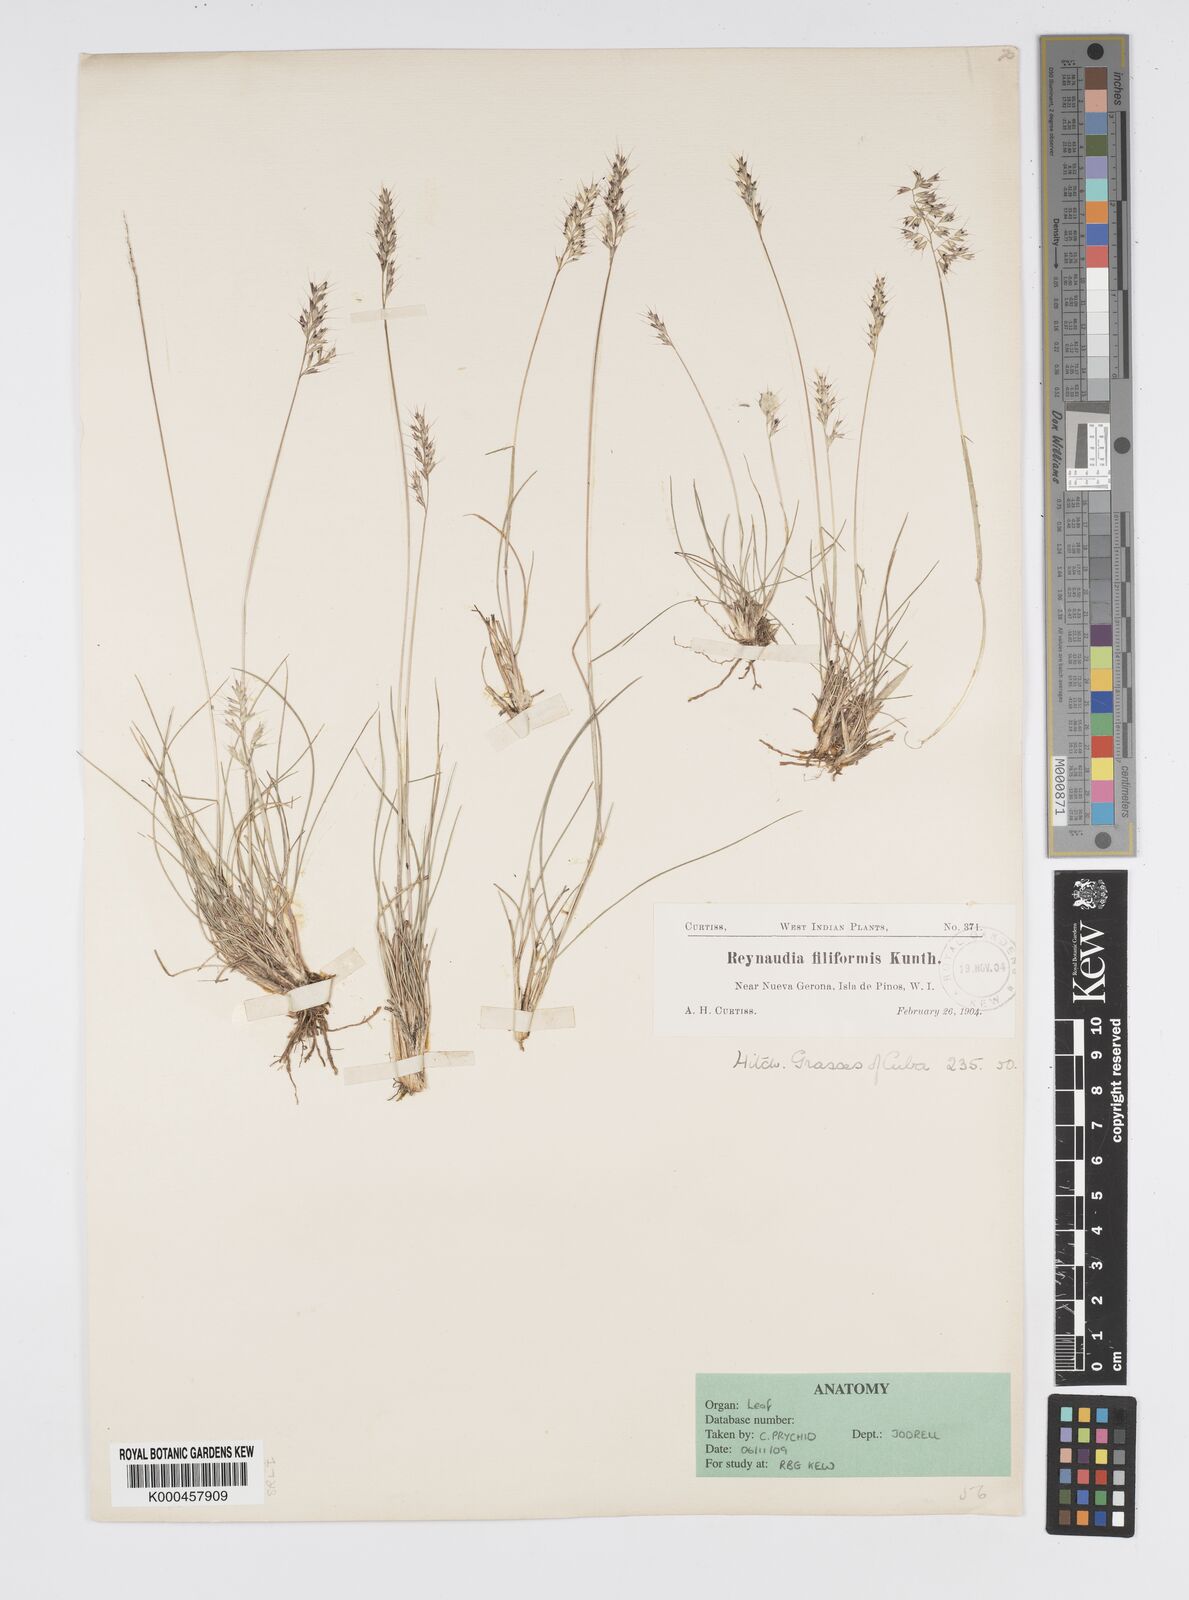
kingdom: Plantae
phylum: Tracheophyta
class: Liliopsida
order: Poales
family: Poaceae
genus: Reynaudia
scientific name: Reynaudia filiformis
